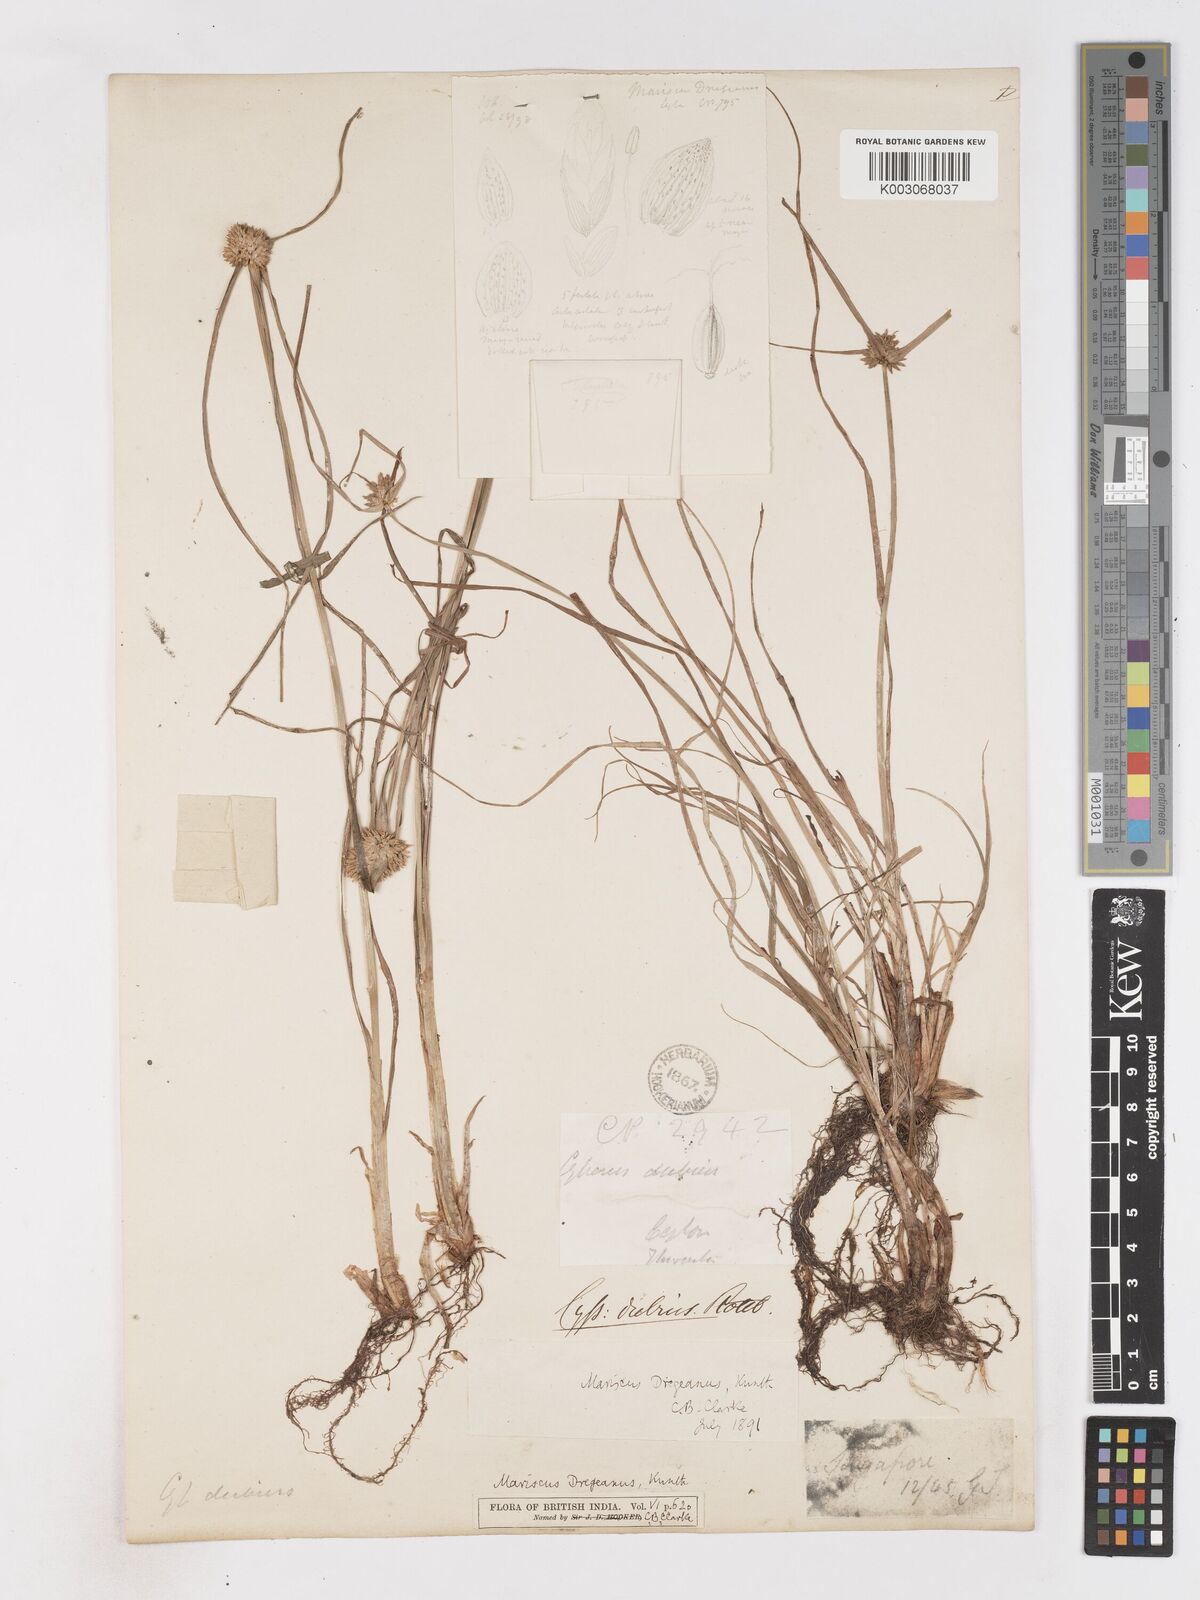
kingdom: Plantae
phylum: Tracheophyta
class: Liliopsida
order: Poales
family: Cyperaceae
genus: Cyperus
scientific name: Cyperus dubius
